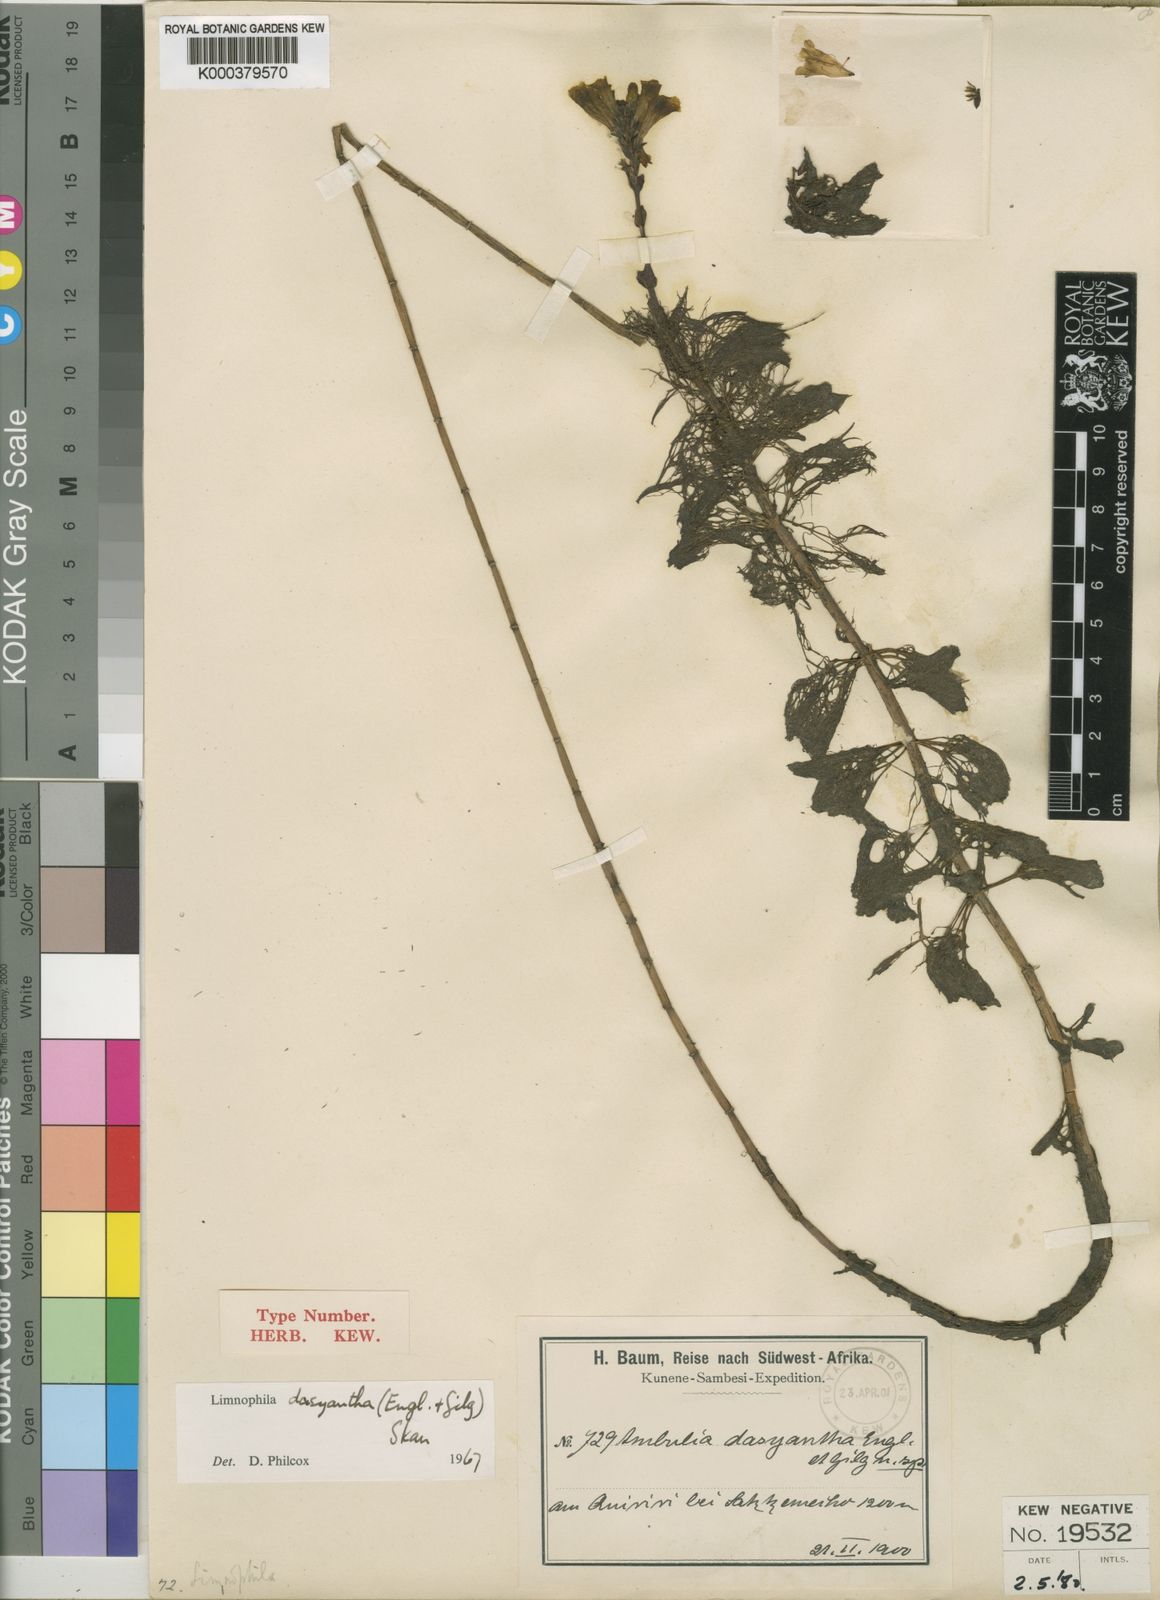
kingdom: Plantae
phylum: Tracheophyta
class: Magnoliopsida
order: Lamiales
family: Plantaginaceae
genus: Limnophila
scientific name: Limnophila dasyantha
